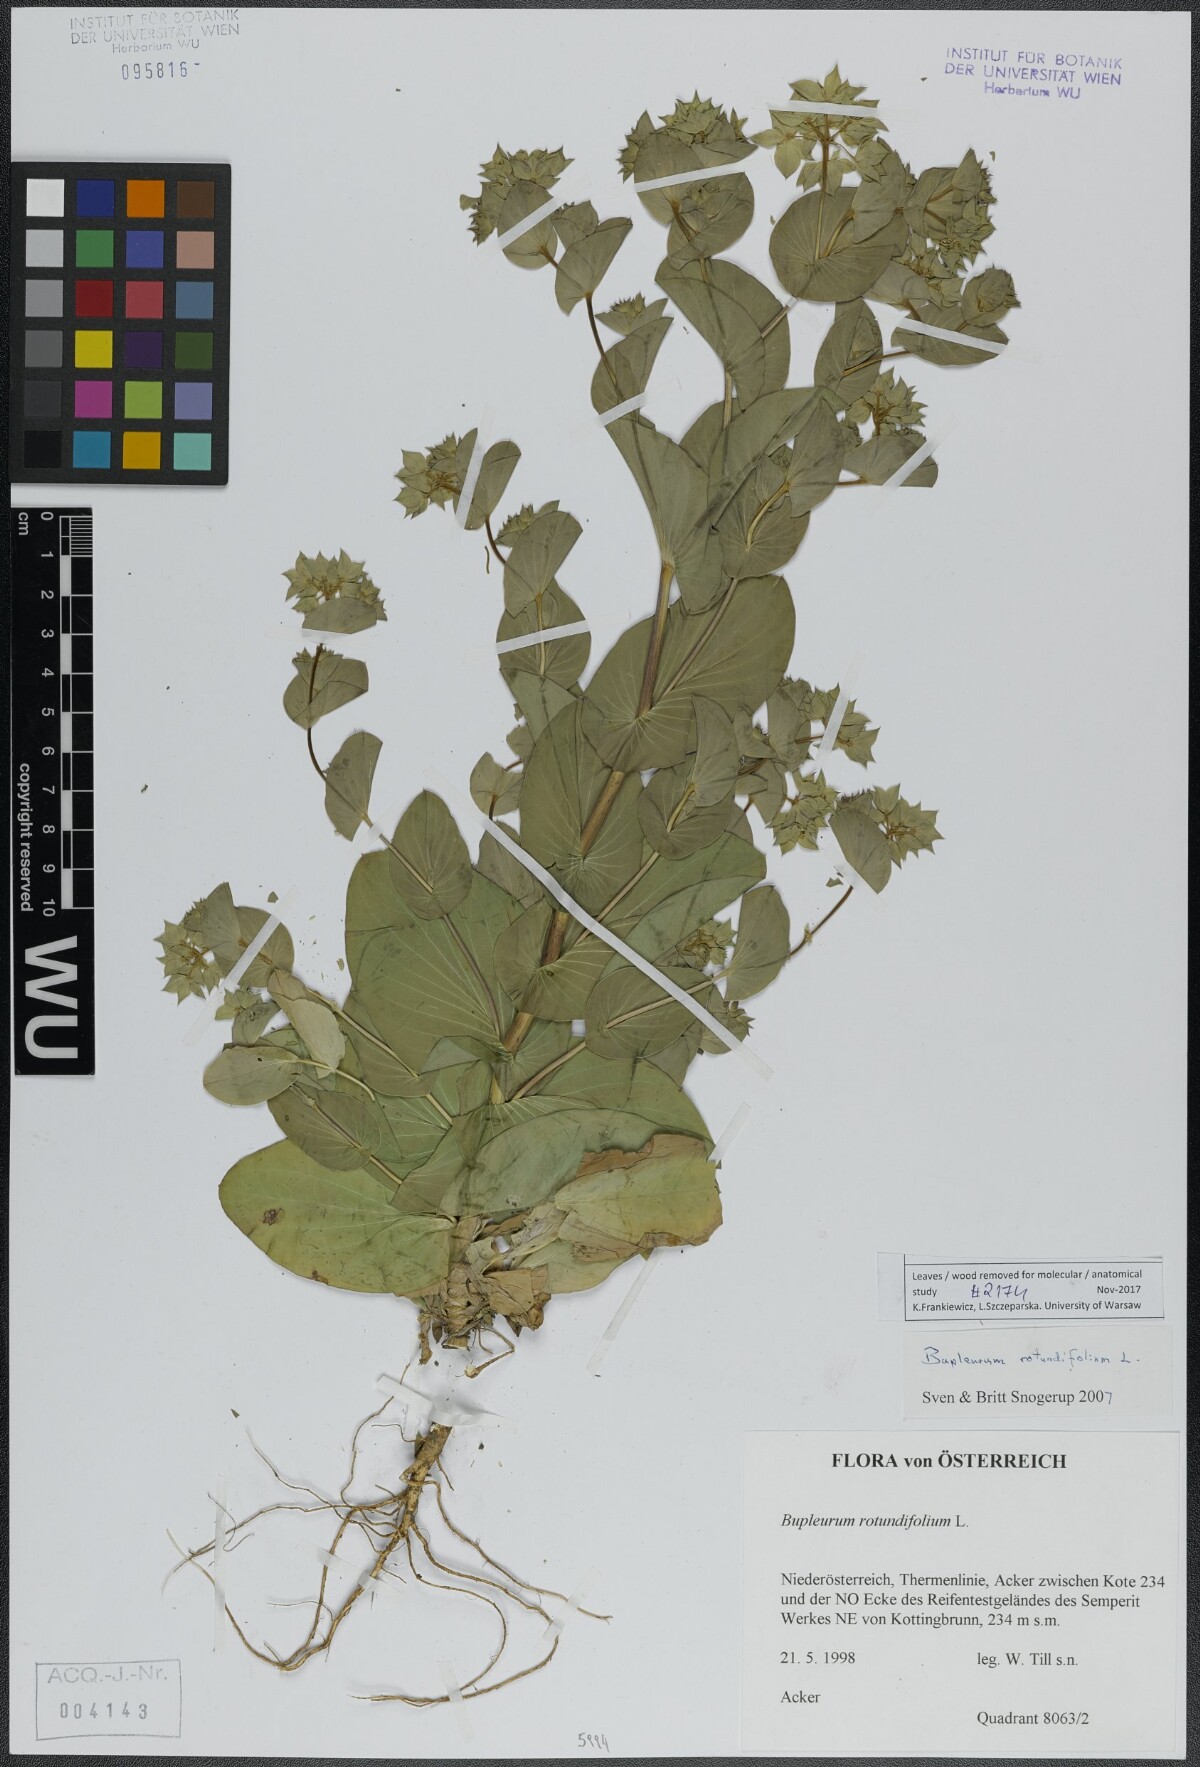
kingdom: Plantae
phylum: Tracheophyta
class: Magnoliopsida
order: Apiales
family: Apiaceae
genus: Bupleurum
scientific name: Bupleurum rotundifolium
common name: Thorow-wax
